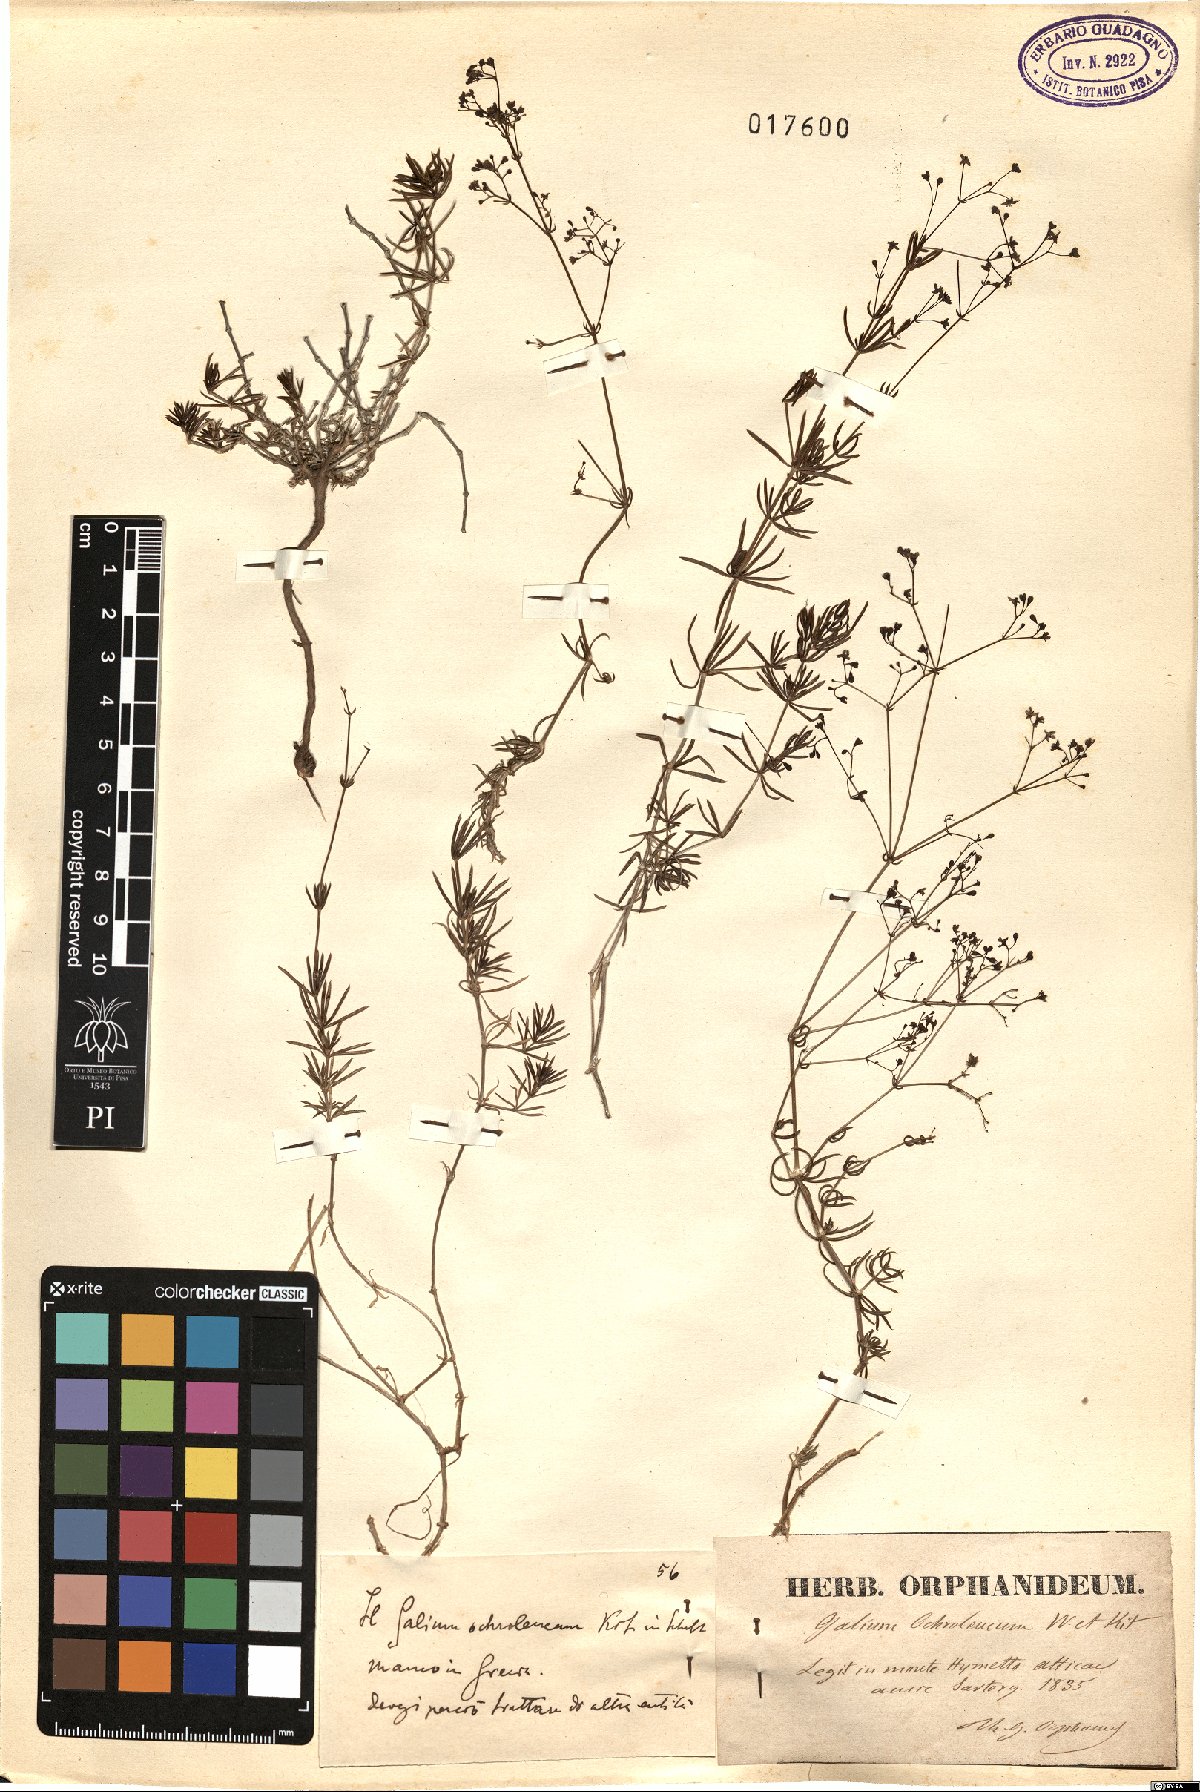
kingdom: Plantae
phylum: Tracheophyta
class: Magnoliopsida
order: Gentianales
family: Rubiaceae
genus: Galium
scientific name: Galium pomeranicum
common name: Bedstraw
